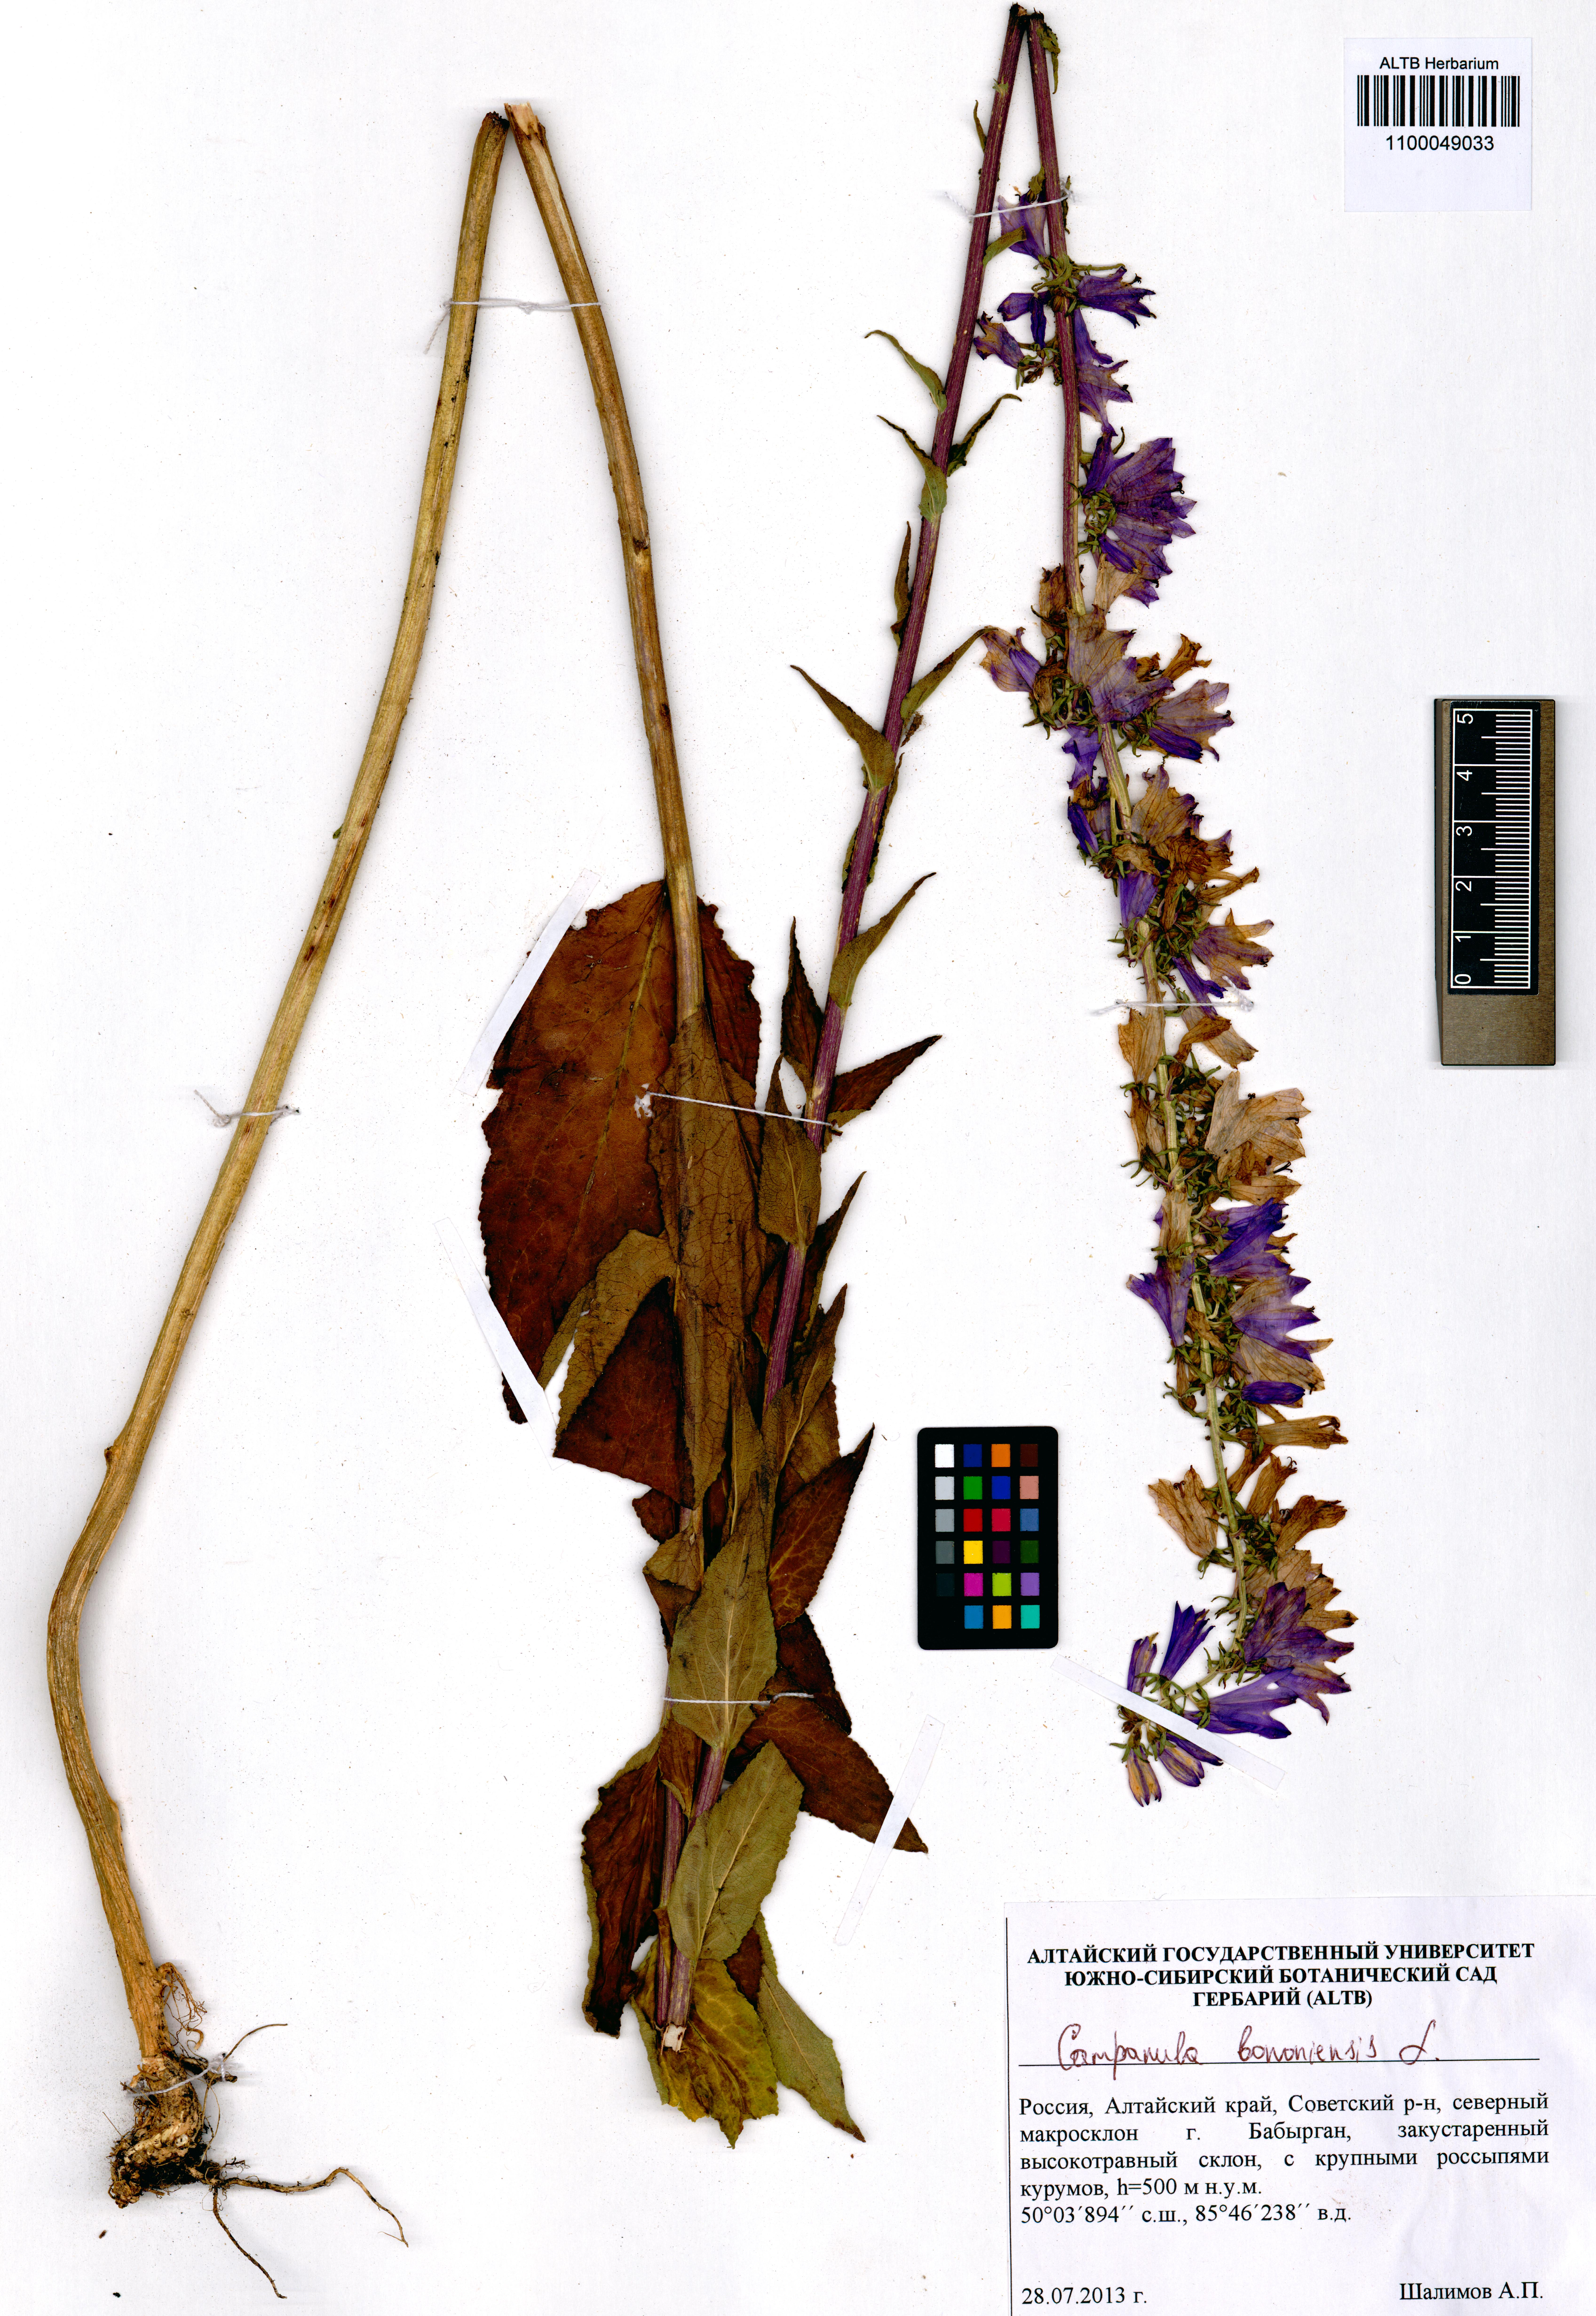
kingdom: Plantae
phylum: Tracheophyta
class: Magnoliopsida
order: Asterales
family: Campanulaceae
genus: Campanula
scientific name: Campanula bononiensis
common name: Pale bellflower
